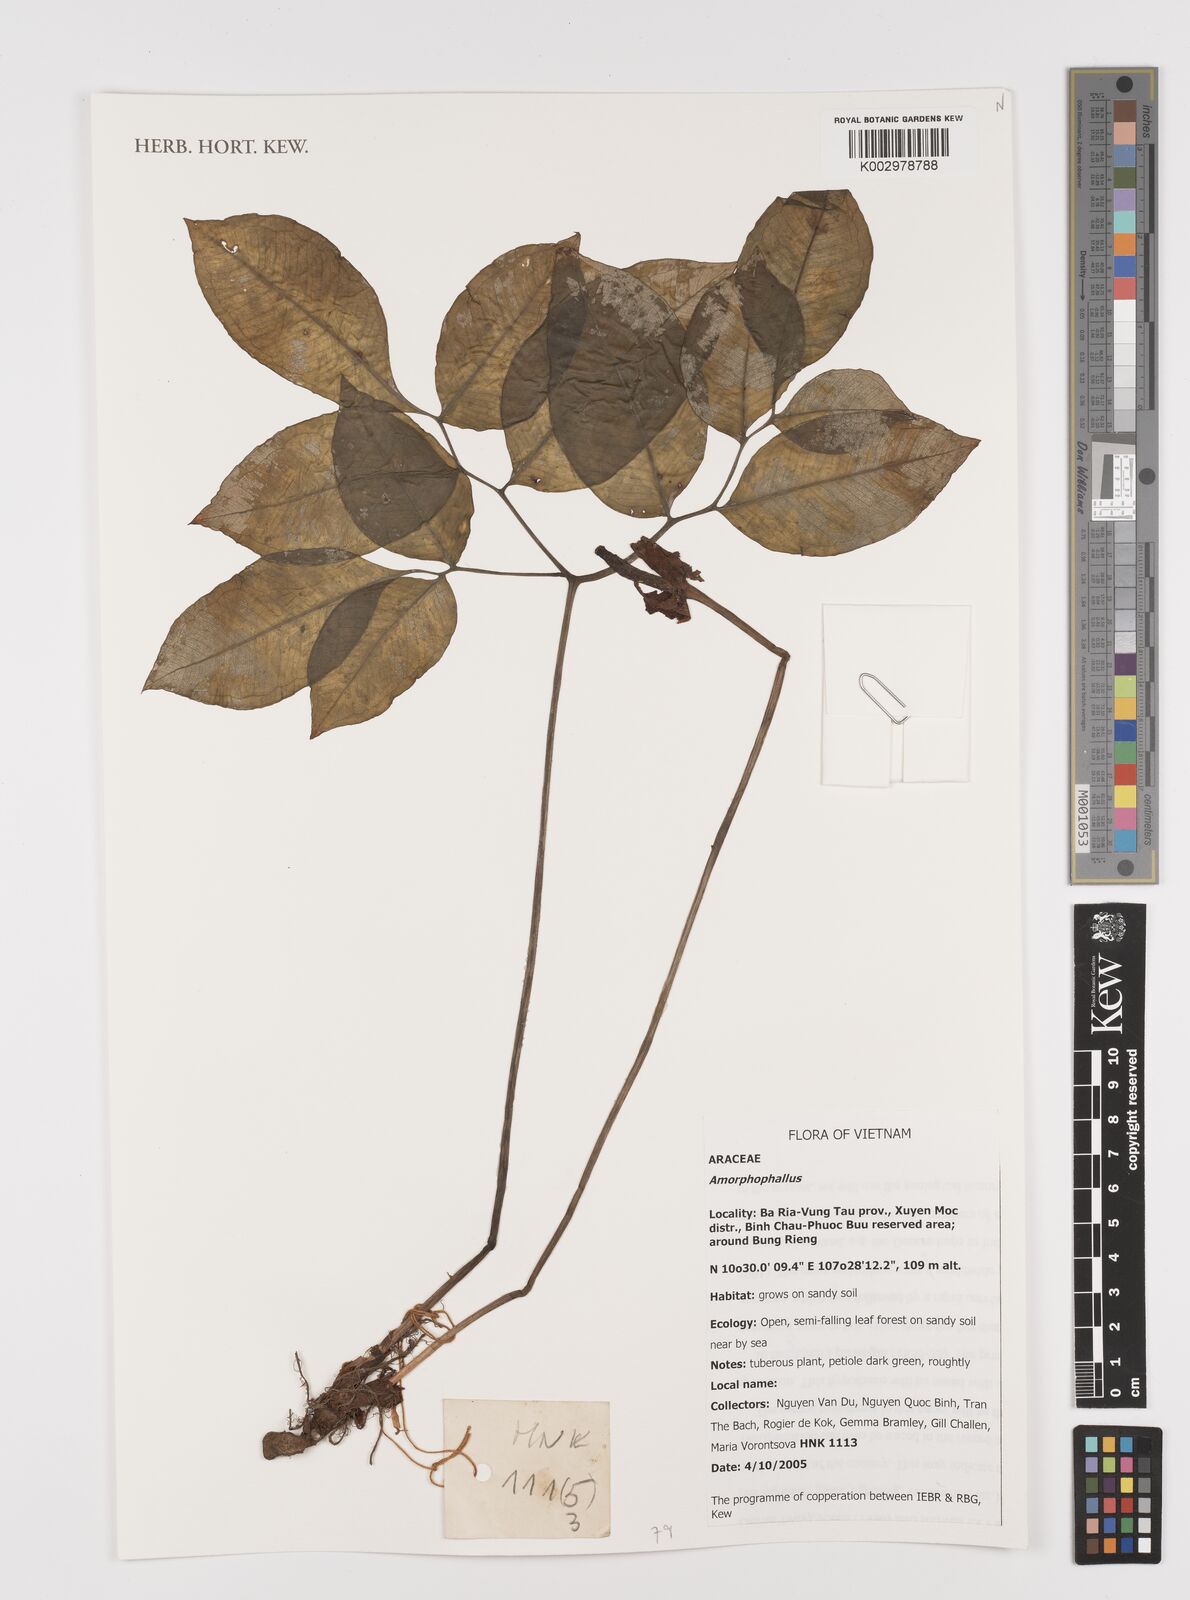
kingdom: Plantae
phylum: Tracheophyta
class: Liliopsida
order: Alismatales
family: Araceae
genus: Amorphophallus
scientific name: Amorphophallus
